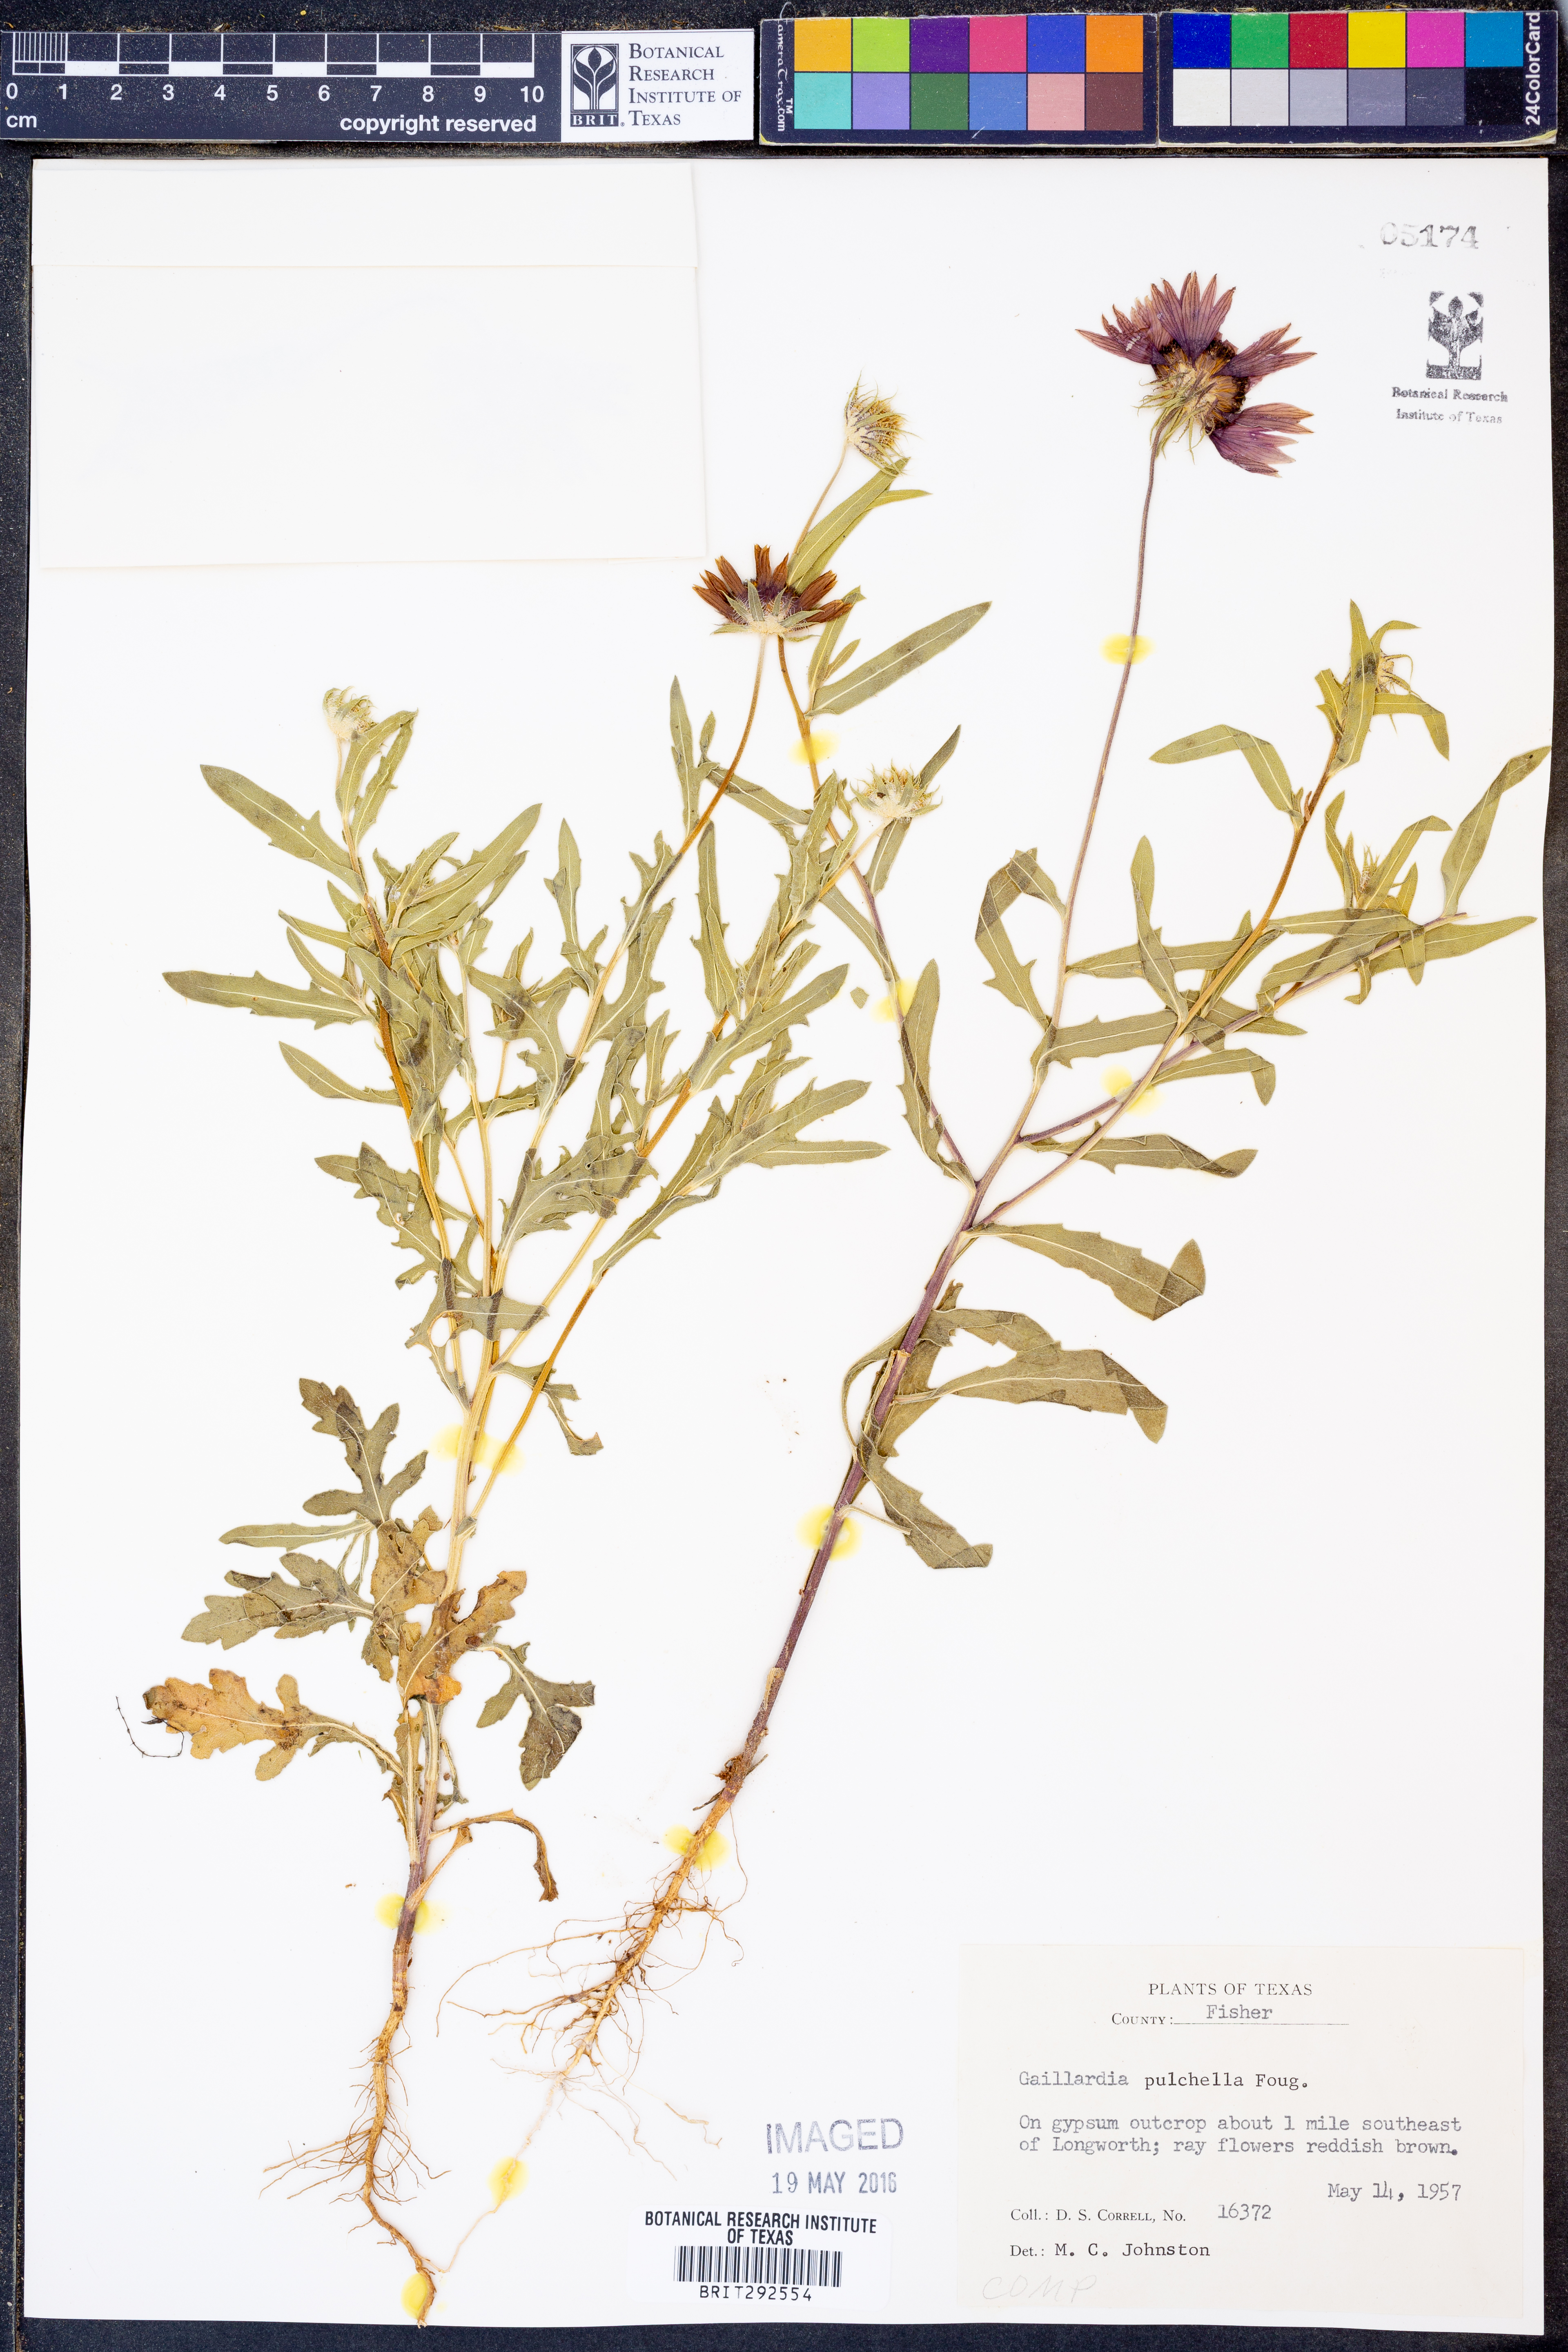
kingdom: Plantae
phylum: Tracheophyta
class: Magnoliopsida
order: Asterales
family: Asteraceae
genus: Gaillardia
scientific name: Gaillardia pulchella
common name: Firewheel
